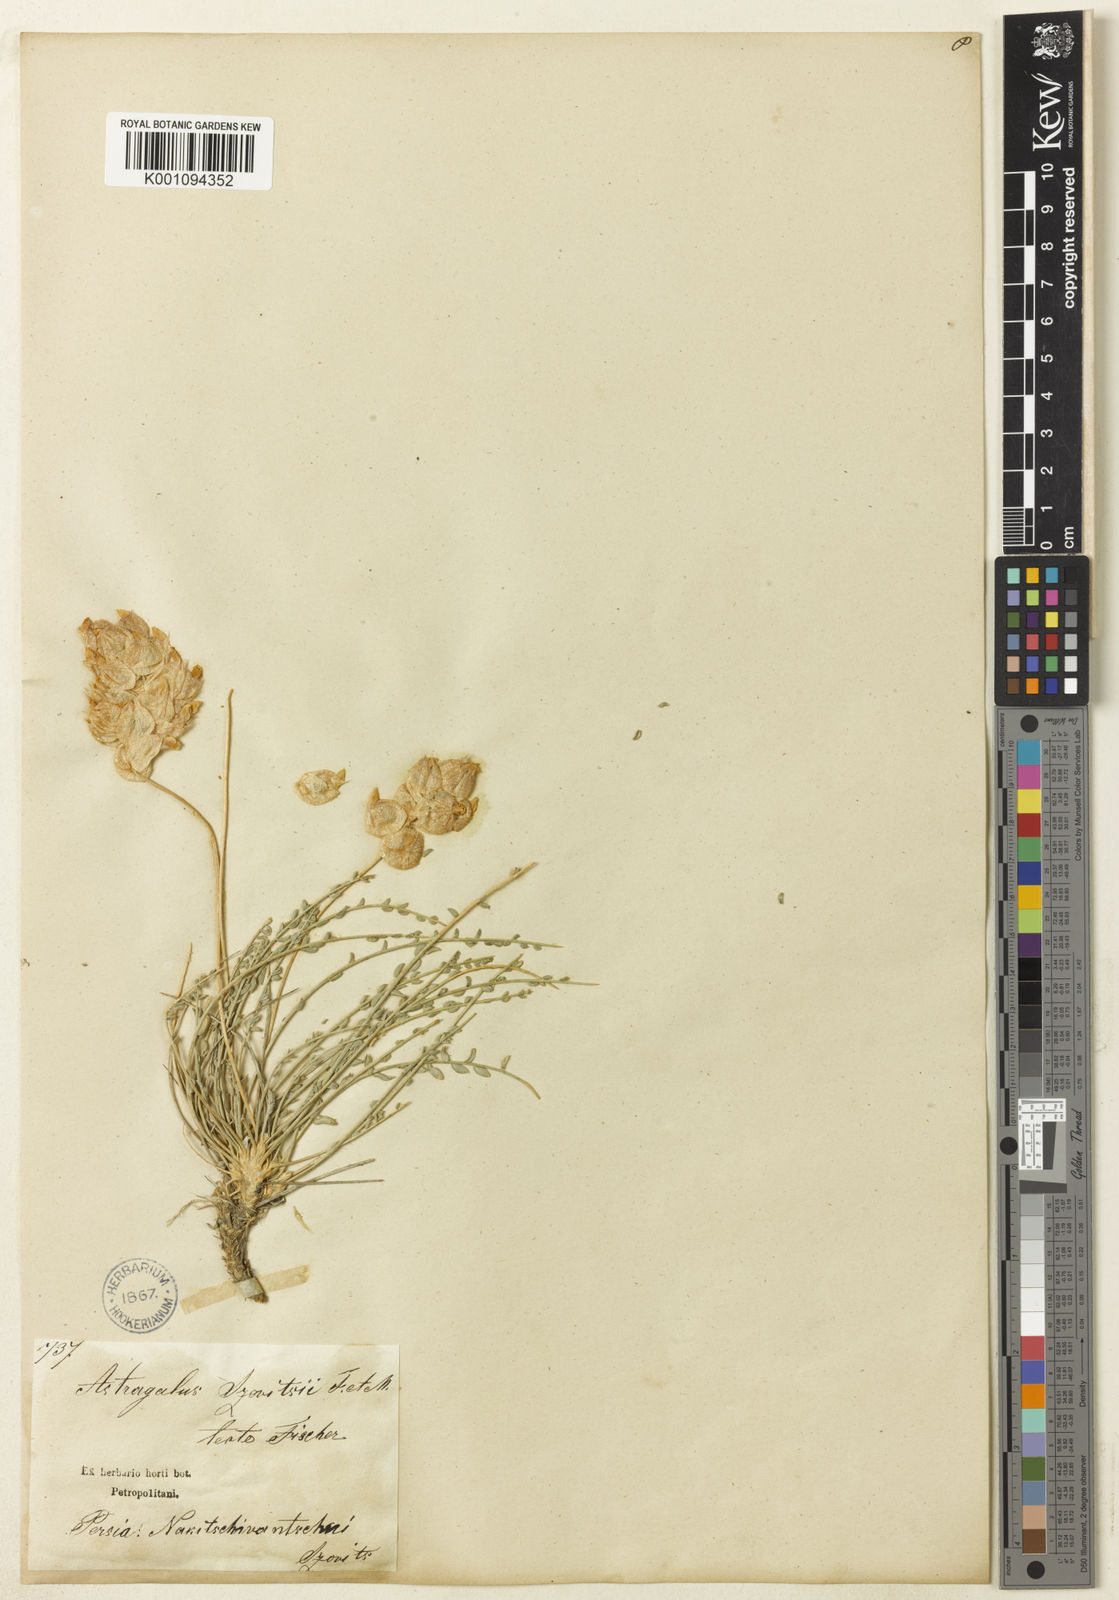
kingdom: Plantae
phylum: Tracheophyta
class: Magnoliopsida
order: Fabales
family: Fabaceae
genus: Astragalus
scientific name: Astragalus
